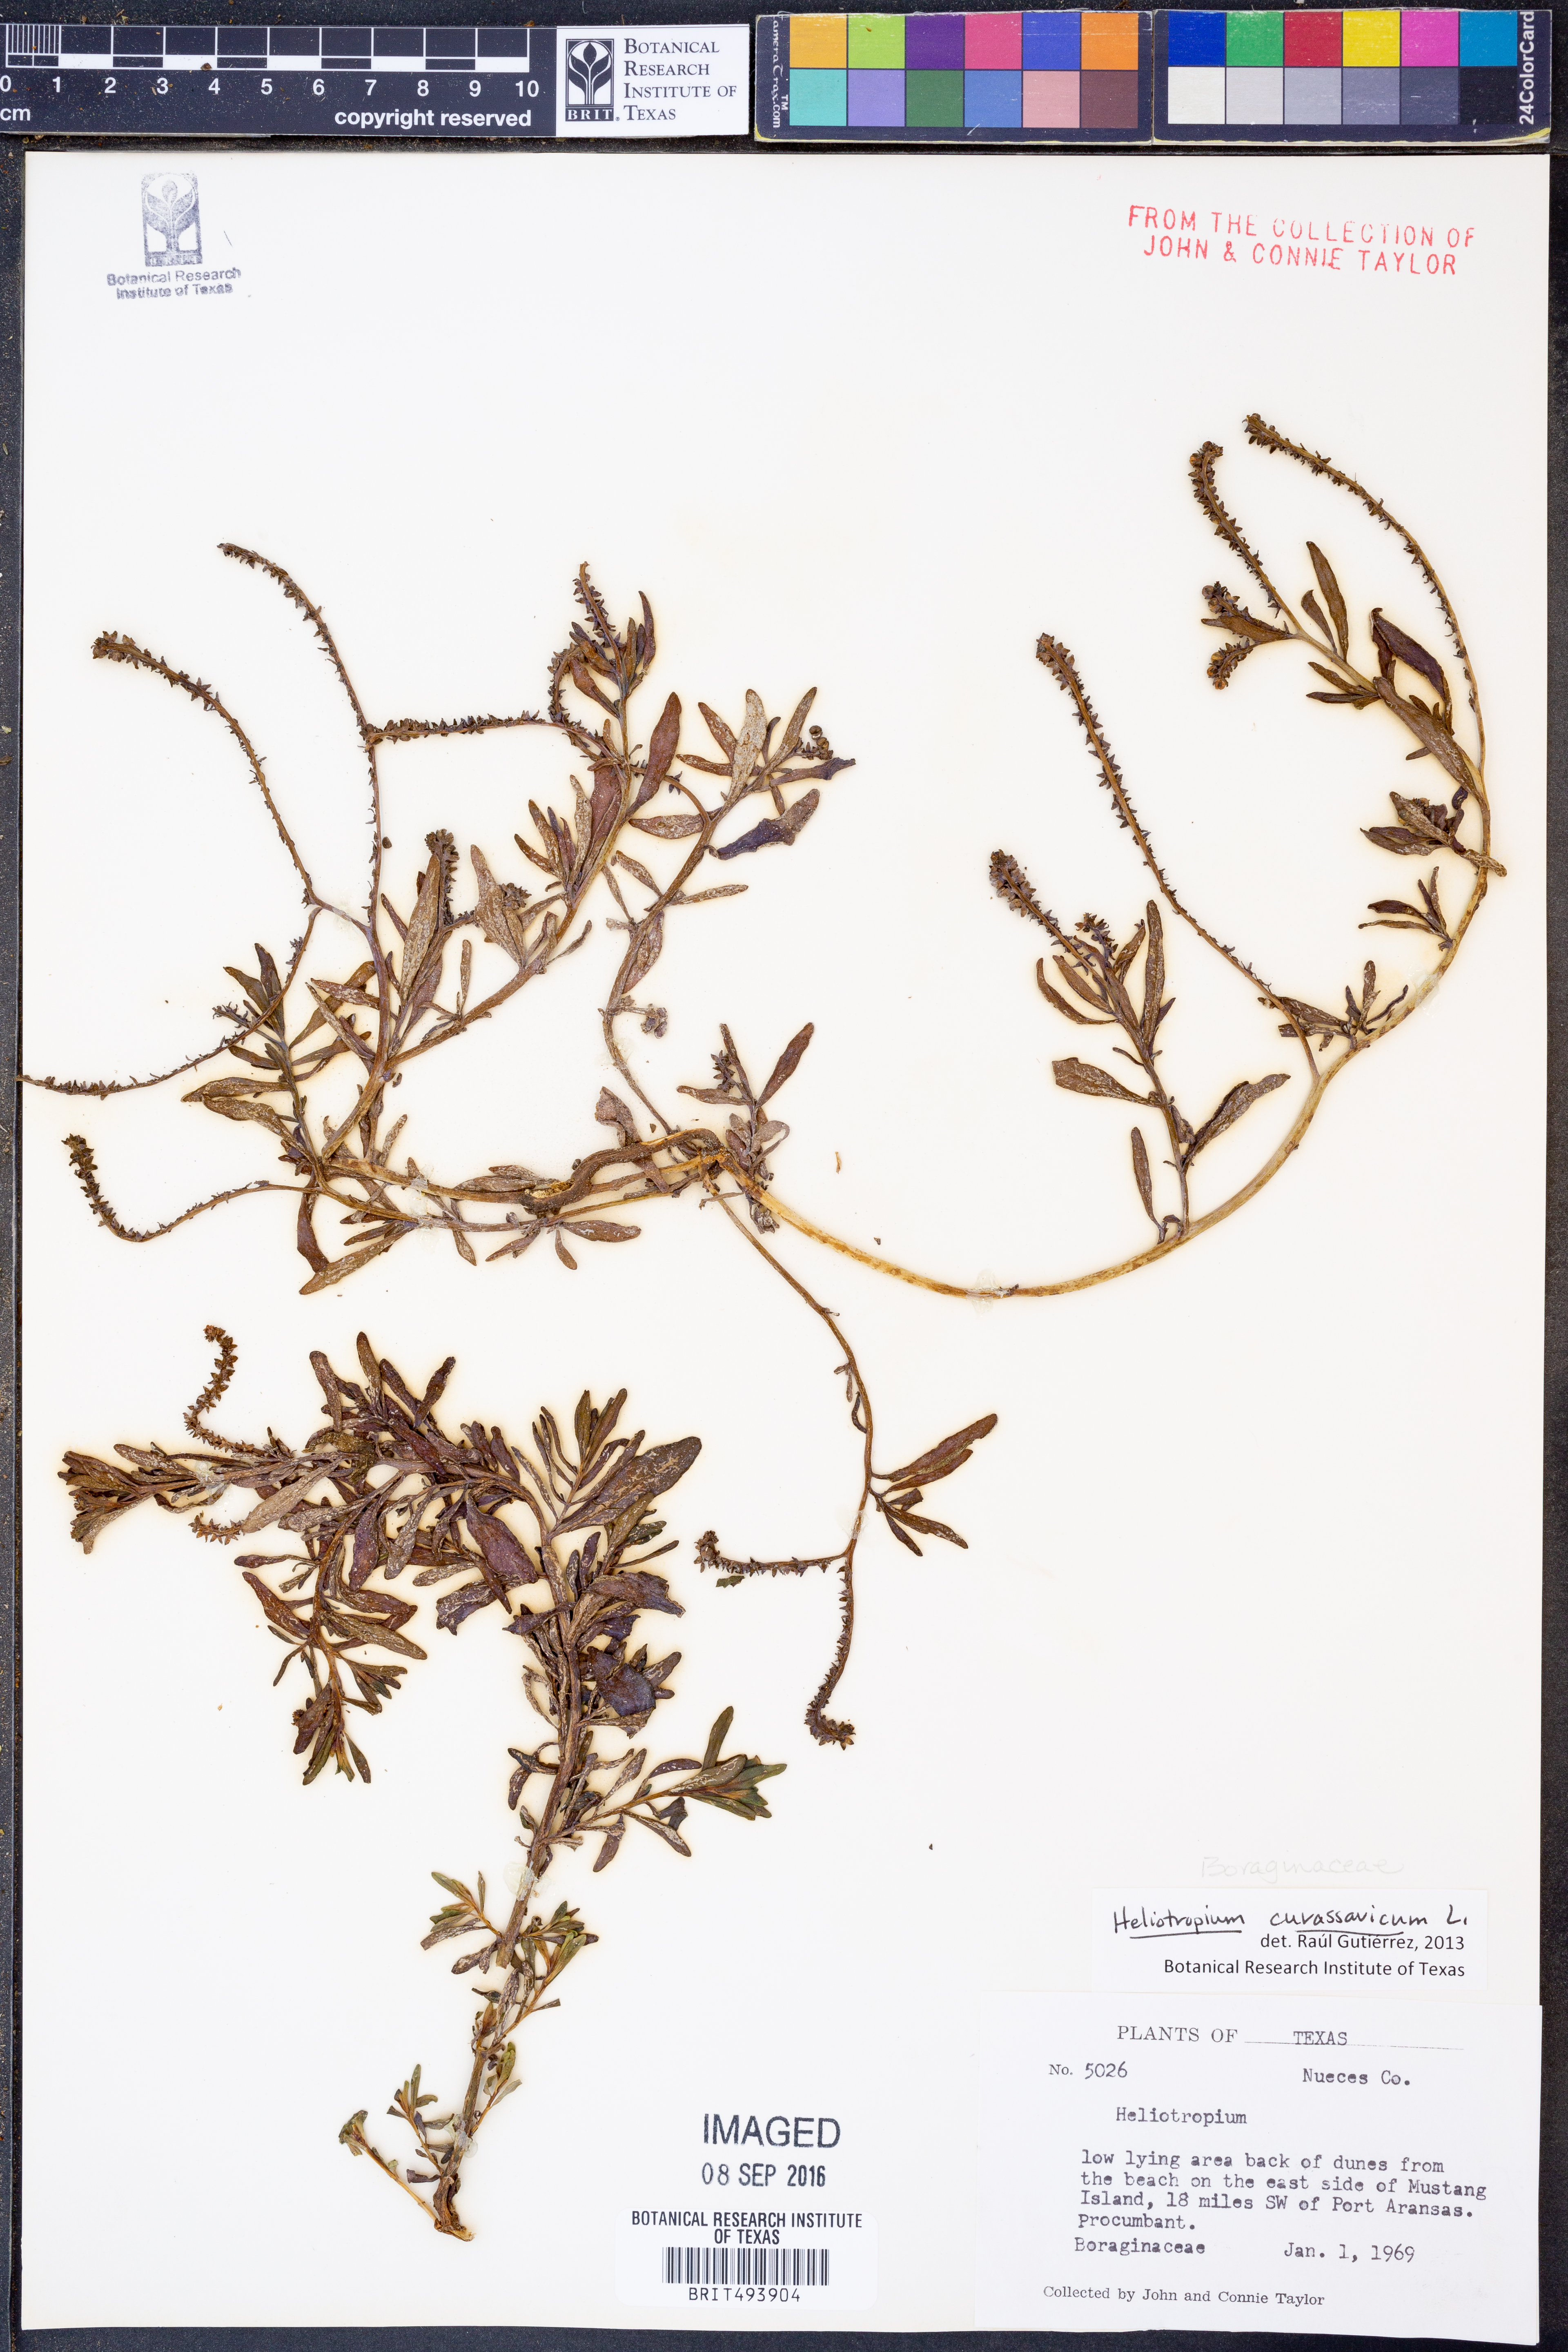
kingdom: Plantae
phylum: Tracheophyta
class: Magnoliopsida
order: Boraginales
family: Heliotropiaceae
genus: Heliotropium
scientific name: Heliotropium curassavicum
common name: Seaside heliotrope
